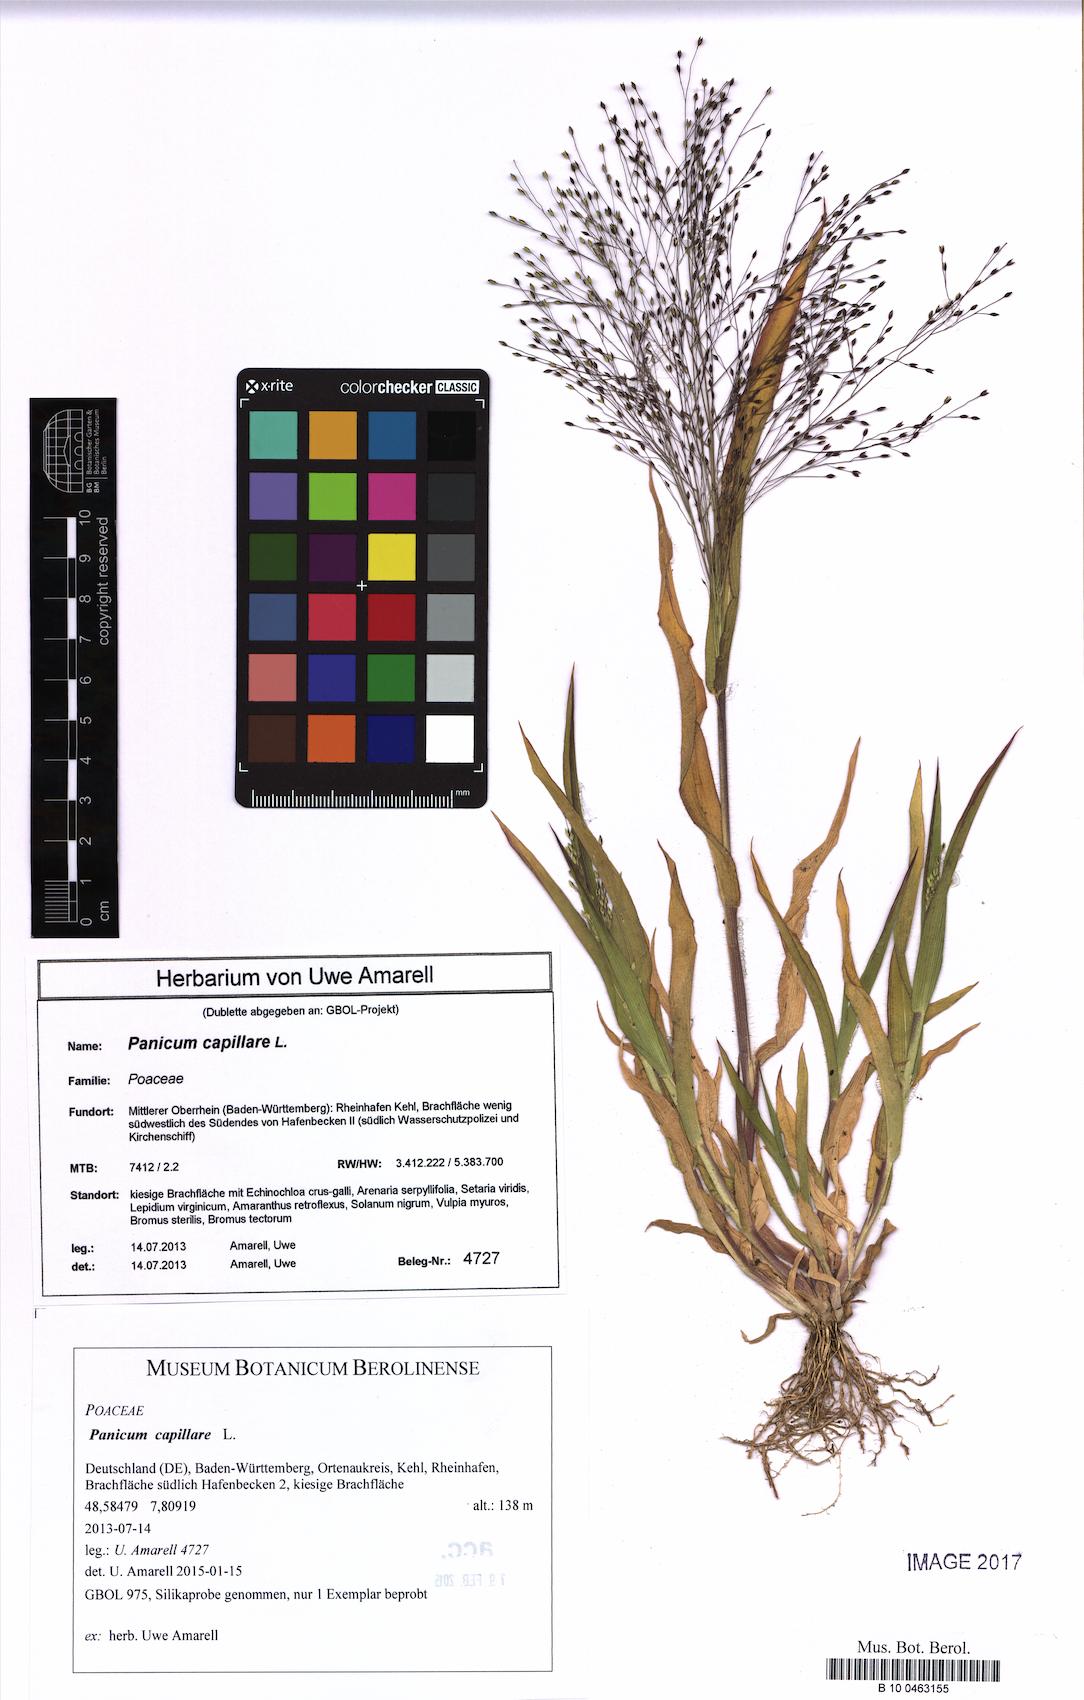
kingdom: Plantae
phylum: Tracheophyta
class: Liliopsida
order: Poales
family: Poaceae
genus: Panicum
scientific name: Panicum capillare
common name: Witch-grass
